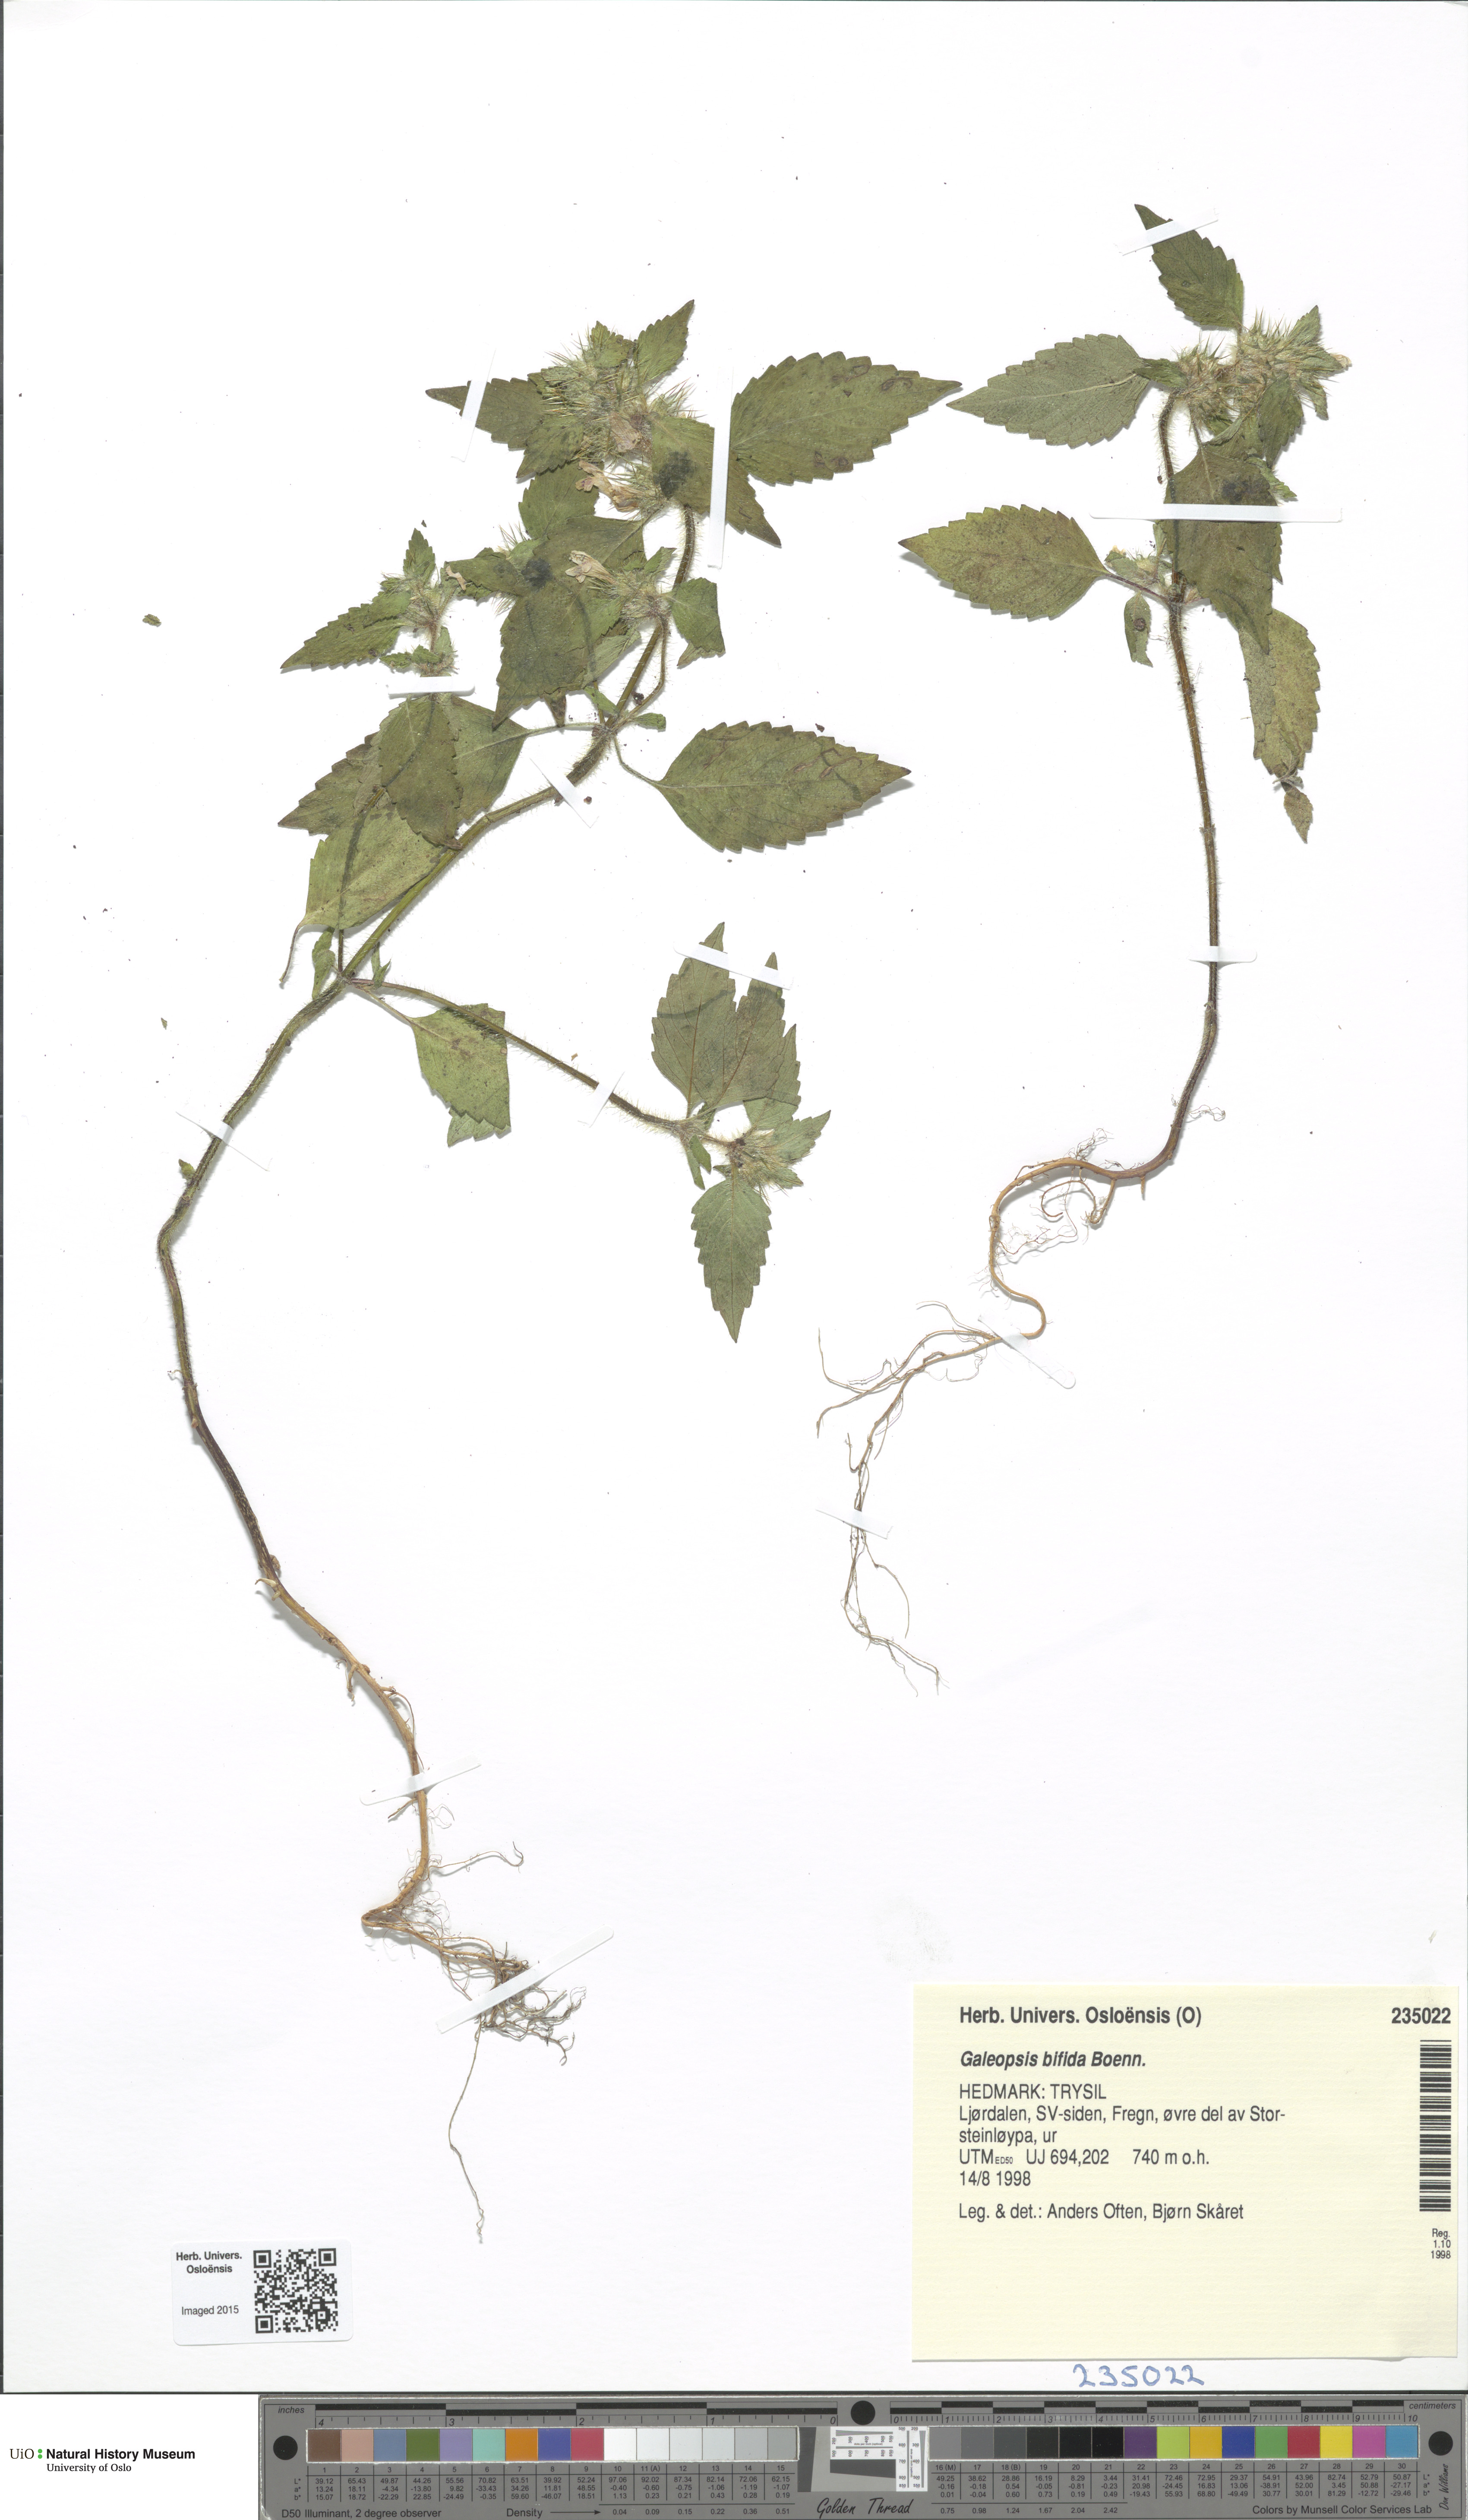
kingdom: Plantae
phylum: Tracheophyta
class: Magnoliopsida
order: Lamiales
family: Lamiaceae
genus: Galeopsis
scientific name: Galeopsis bifida
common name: Bifid hemp-nettle
